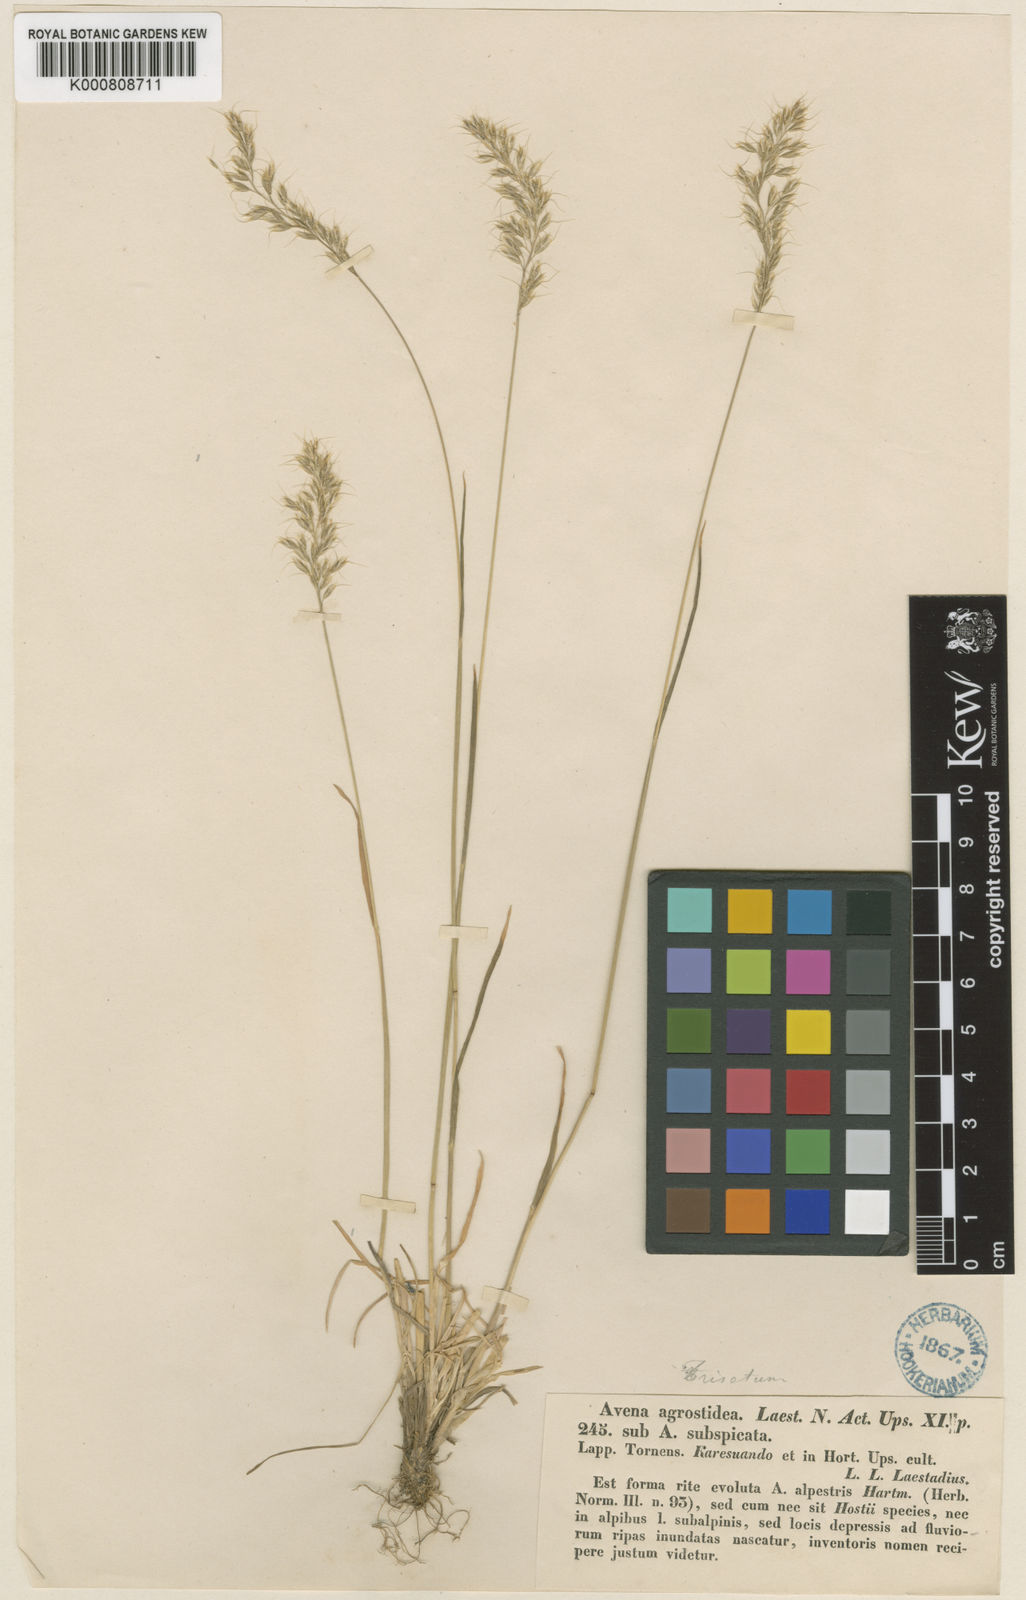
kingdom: Plantae
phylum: Tracheophyta
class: Liliopsida
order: Poales
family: Poaceae
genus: Koeleria
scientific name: Koeleria subalpestris
